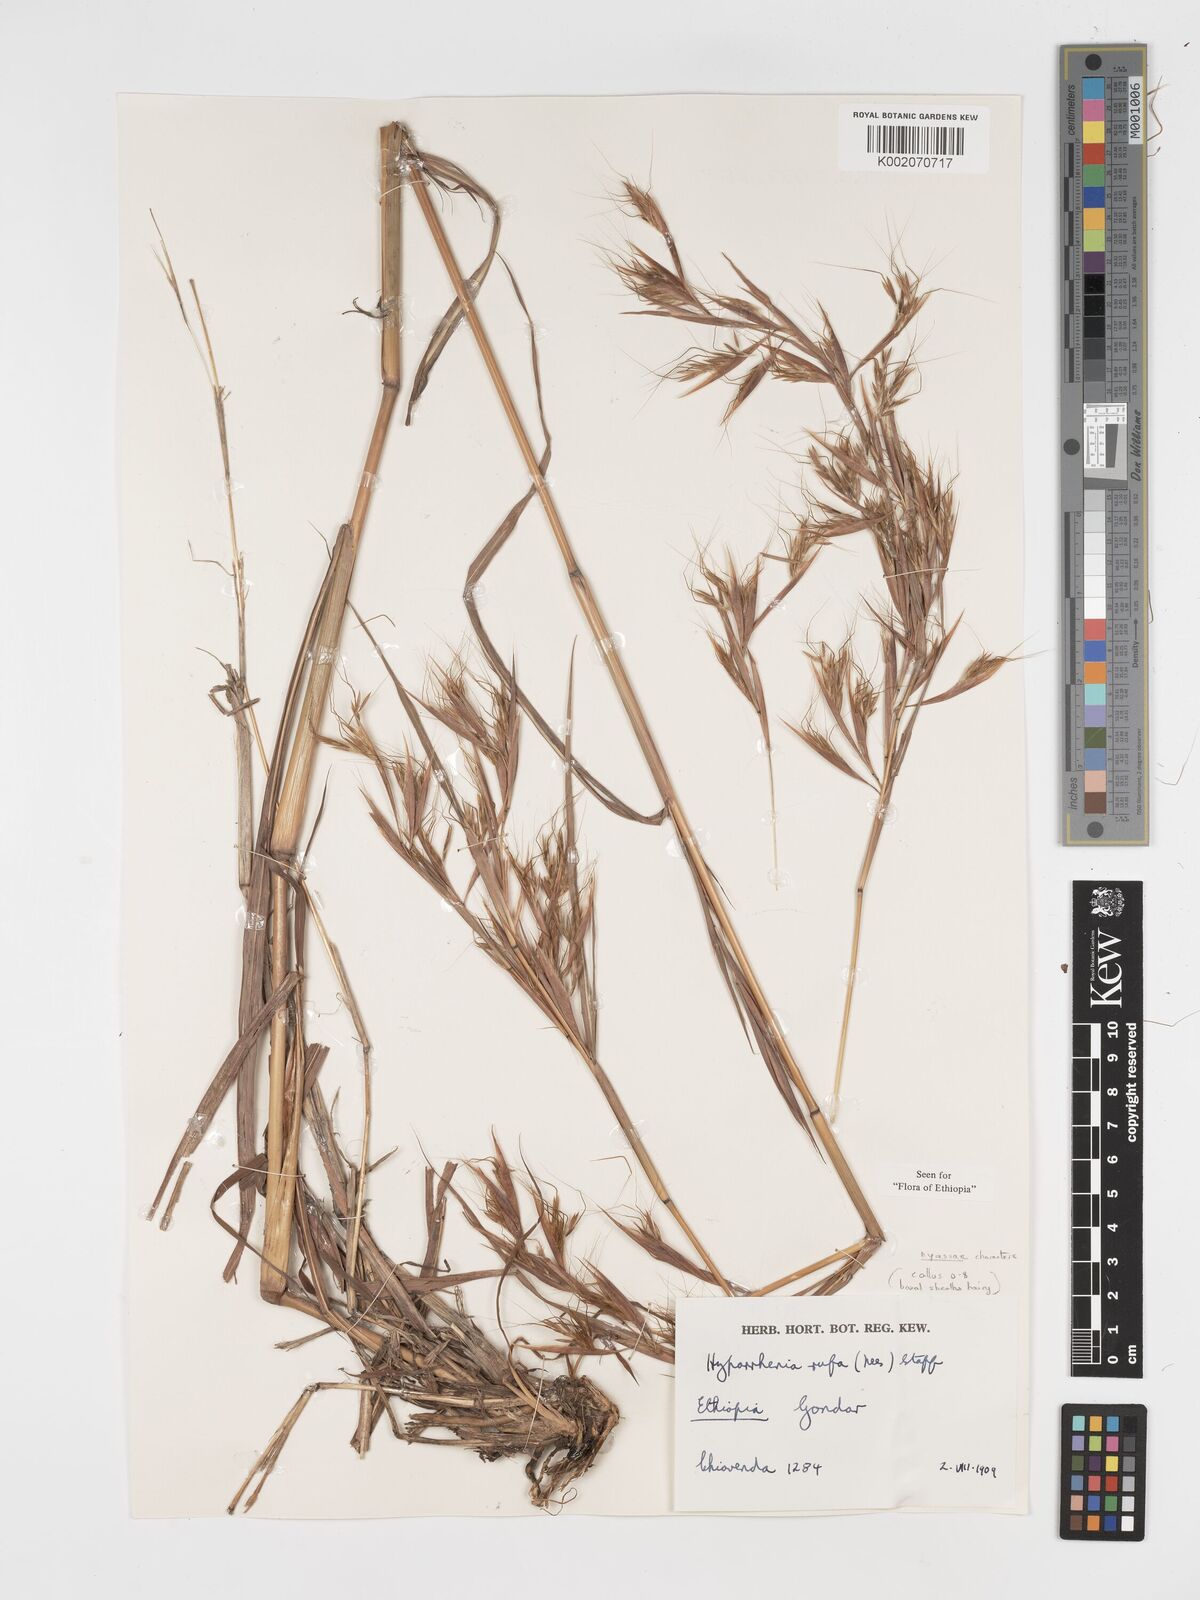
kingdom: Plantae
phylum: Tracheophyta
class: Liliopsida
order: Poales
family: Poaceae
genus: Hyparrhenia
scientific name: Hyparrhenia rufa
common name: Jaraguagrass
